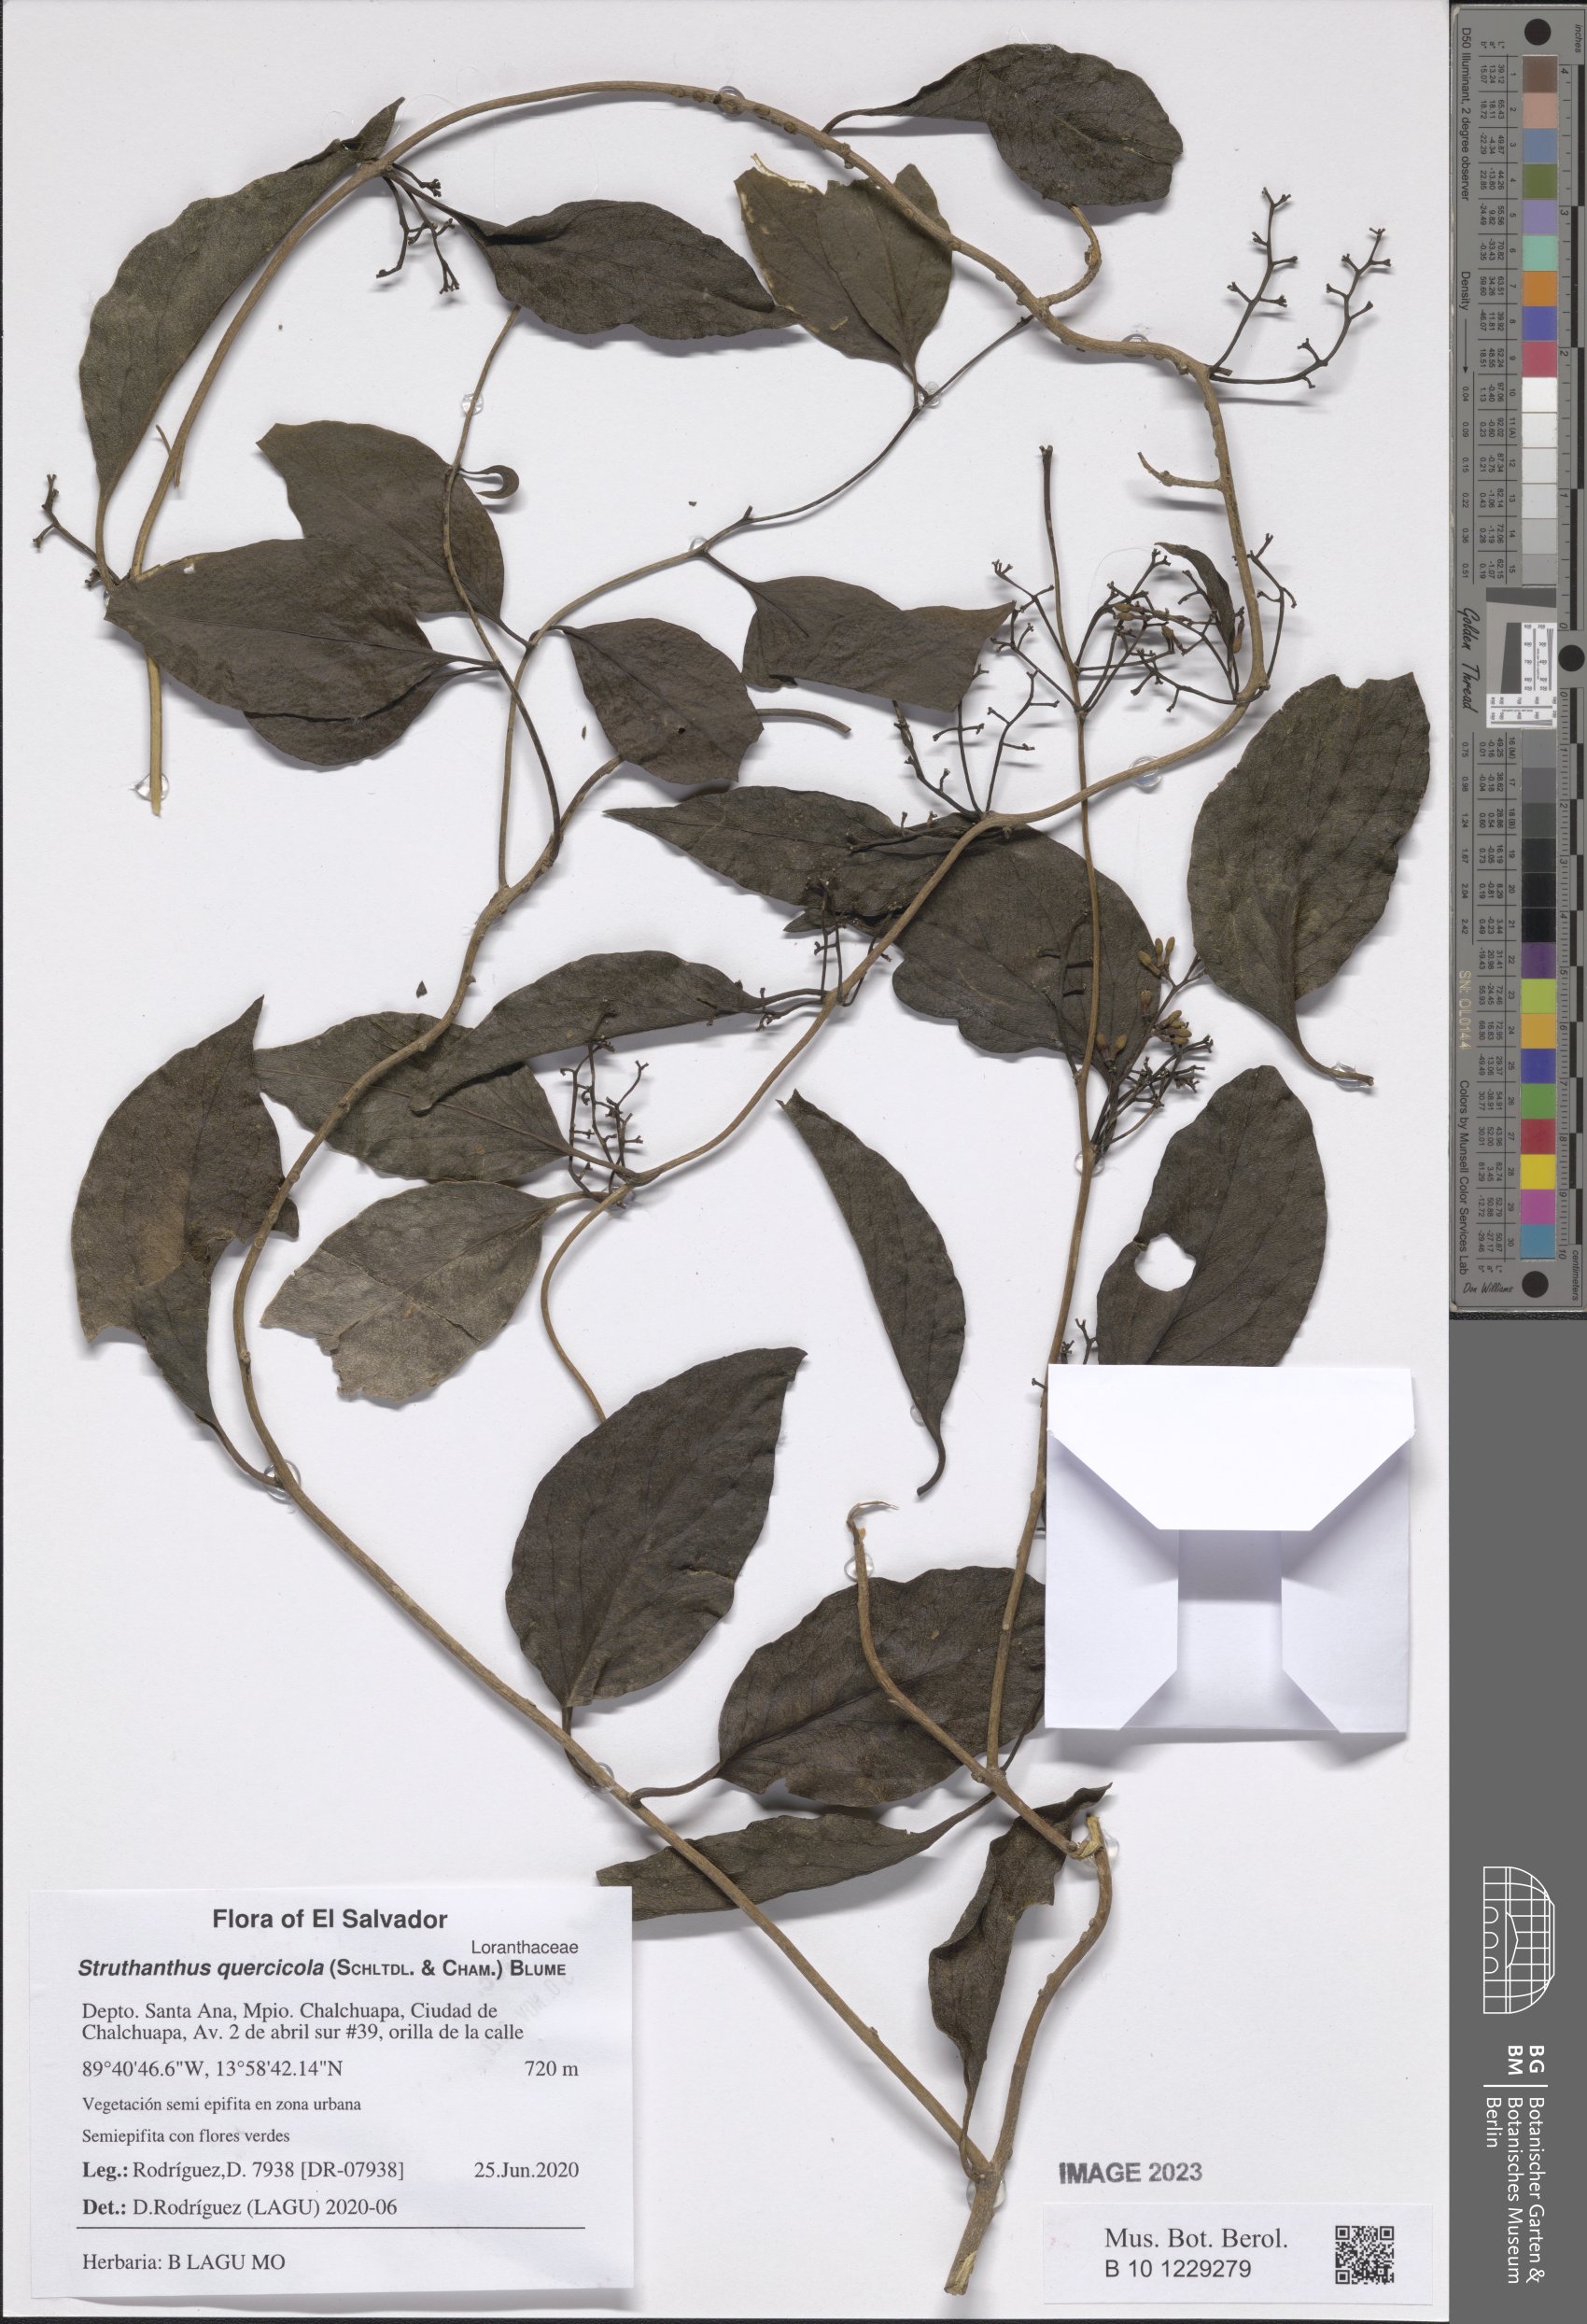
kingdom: Plantae
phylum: Tracheophyta
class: Magnoliopsida
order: Santalales
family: Loranthaceae
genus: Struthanthus
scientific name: Struthanthus quercicola
